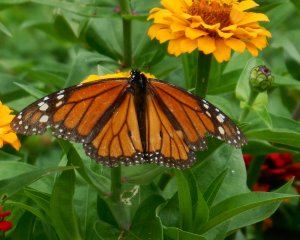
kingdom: Animalia
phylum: Arthropoda
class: Insecta
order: Lepidoptera
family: Nymphalidae
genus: Danaus
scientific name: Danaus plexippus
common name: Monarch
